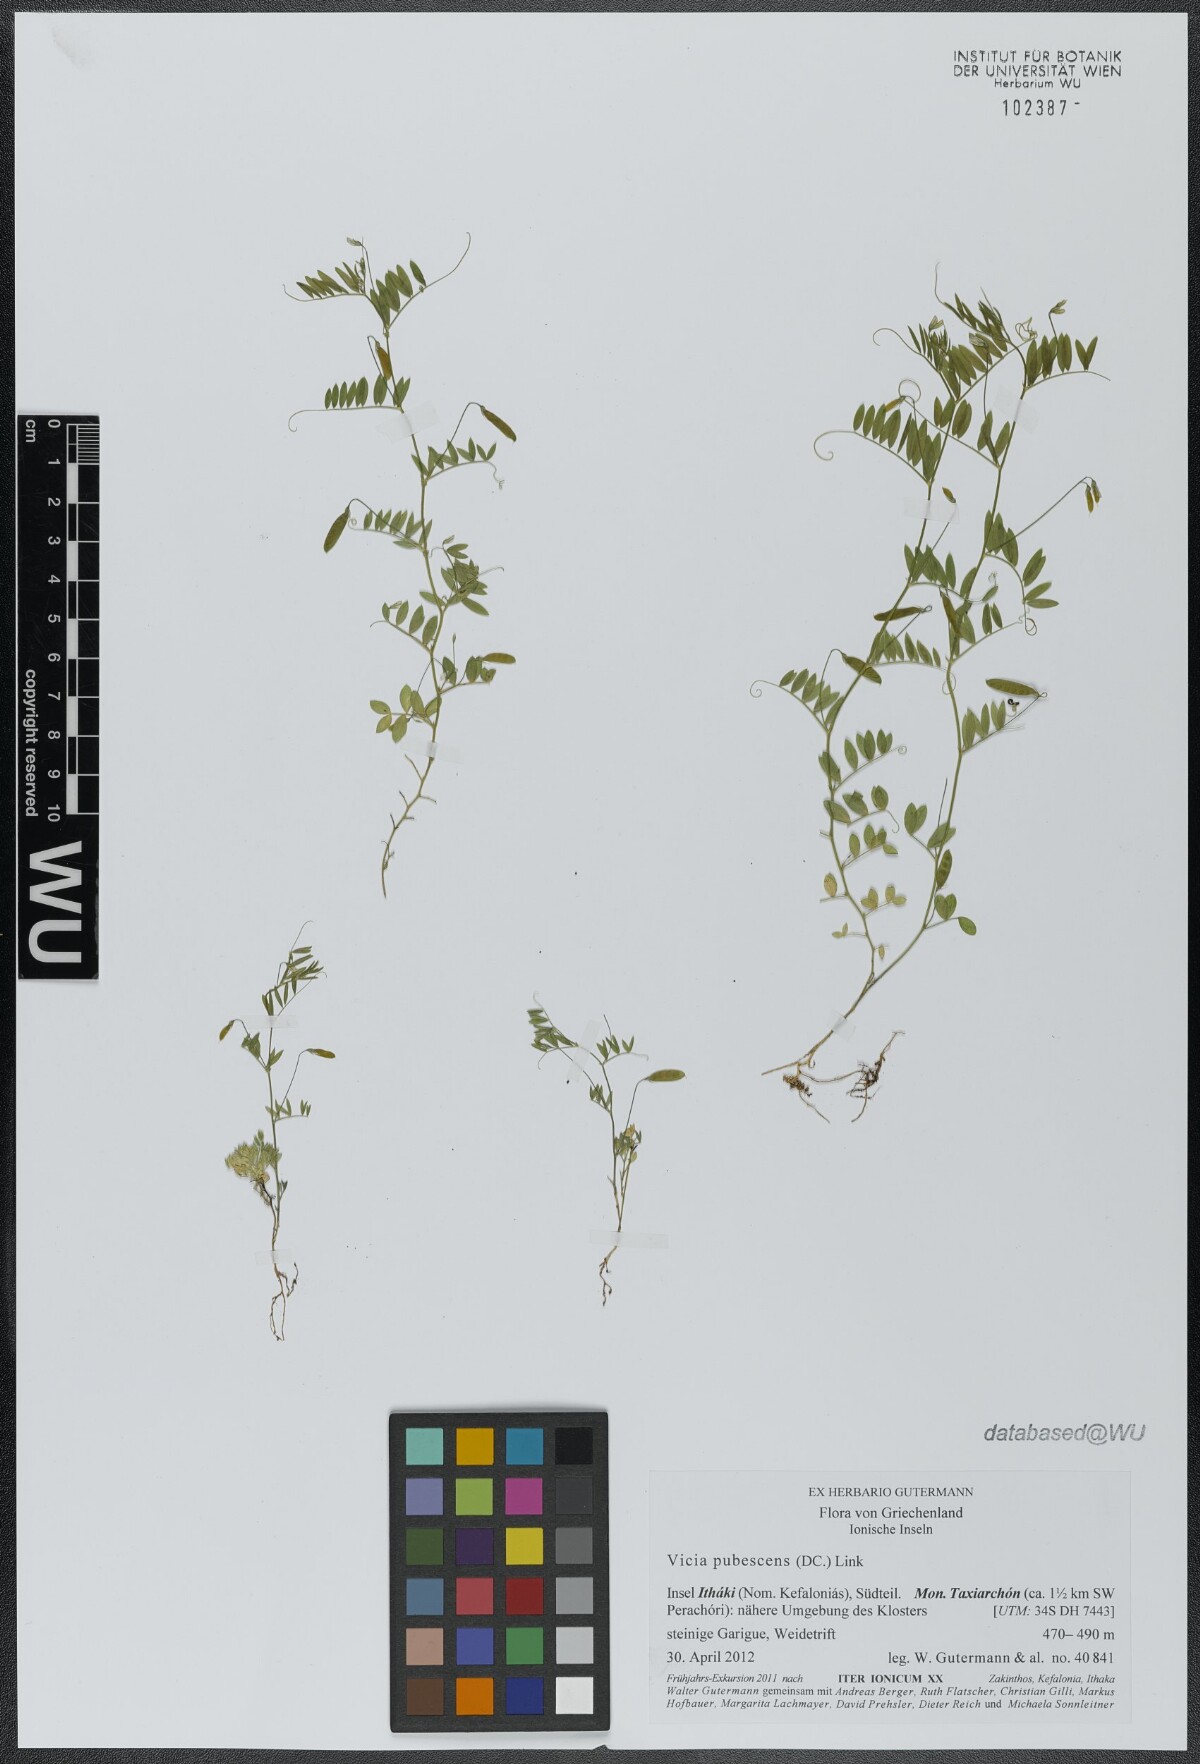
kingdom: Plantae
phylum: Tracheophyta
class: Magnoliopsida
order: Fabales
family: Fabaceae
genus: Vicia
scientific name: Vicia pubescens
